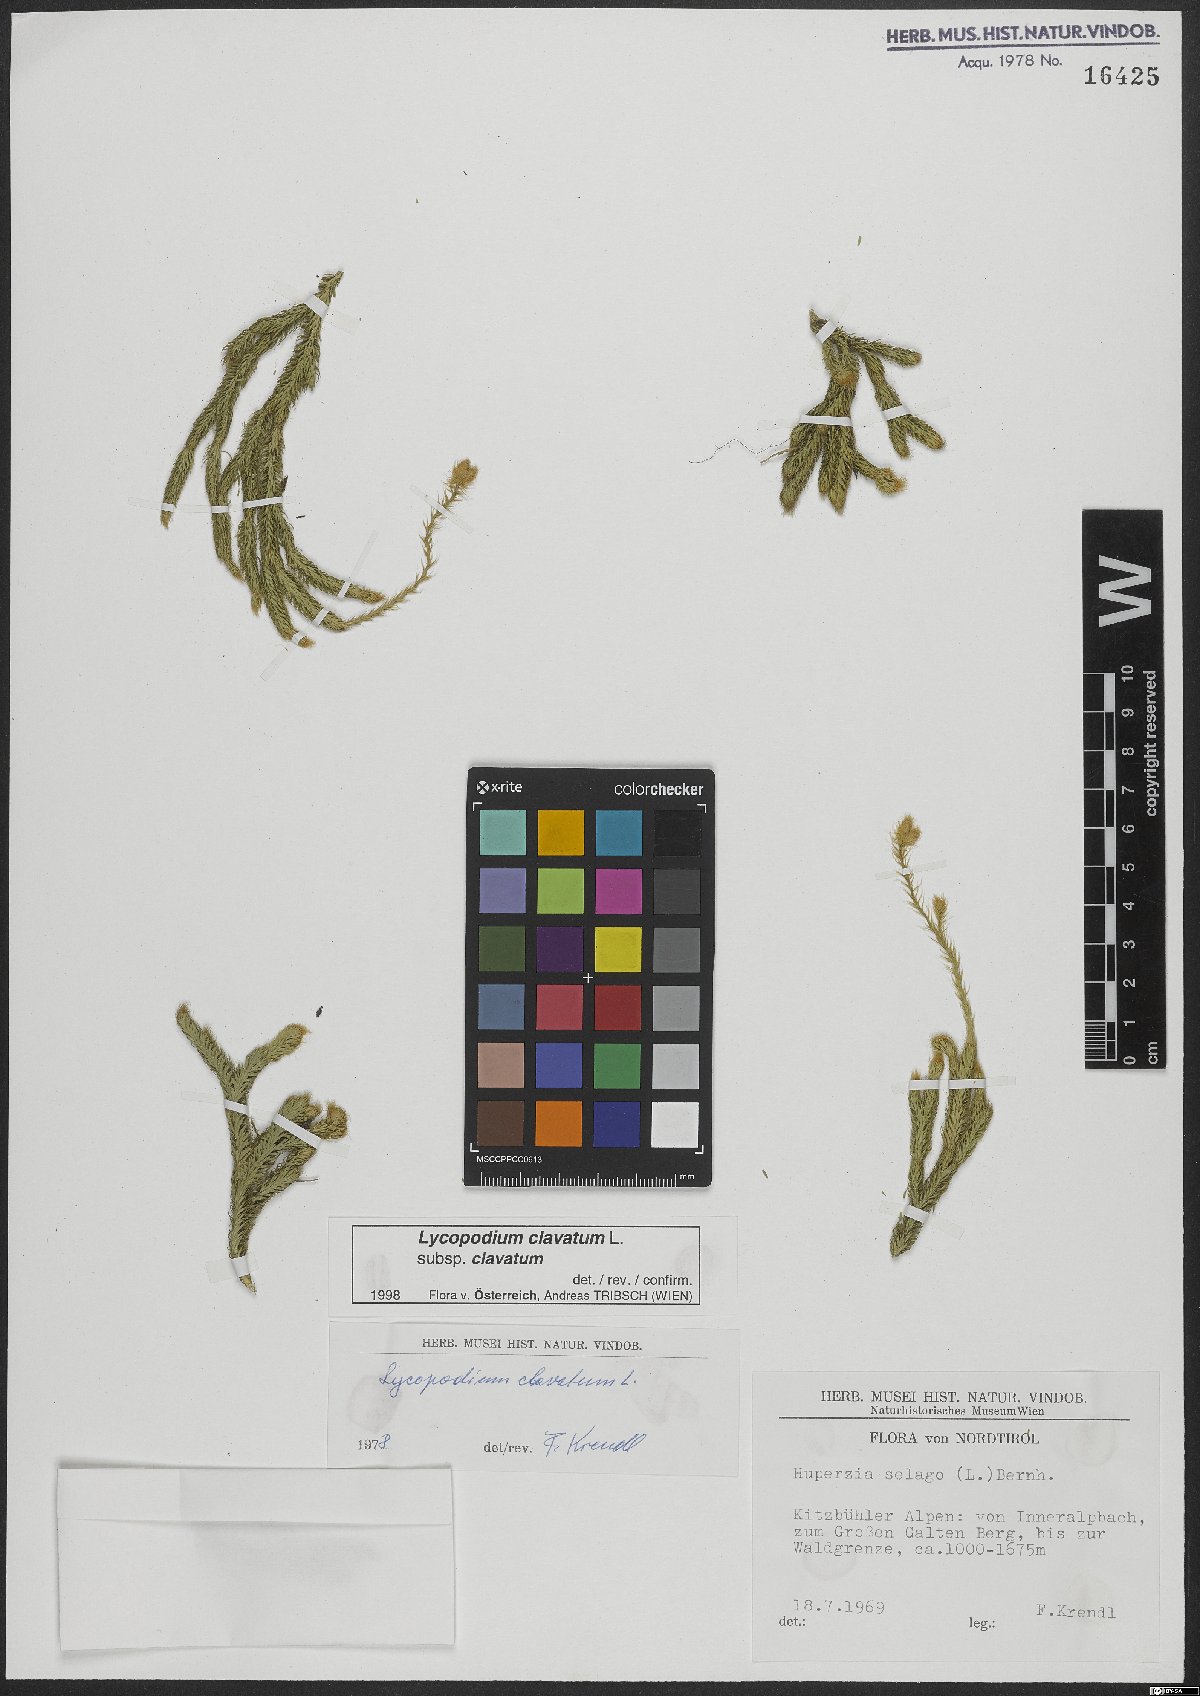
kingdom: Plantae
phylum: Tracheophyta
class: Lycopodiopsida
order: Lycopodiales
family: Lycopodiaceae
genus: Lycopodium
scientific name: Lycopodium clavatum
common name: Stag's-horn clubmoss
